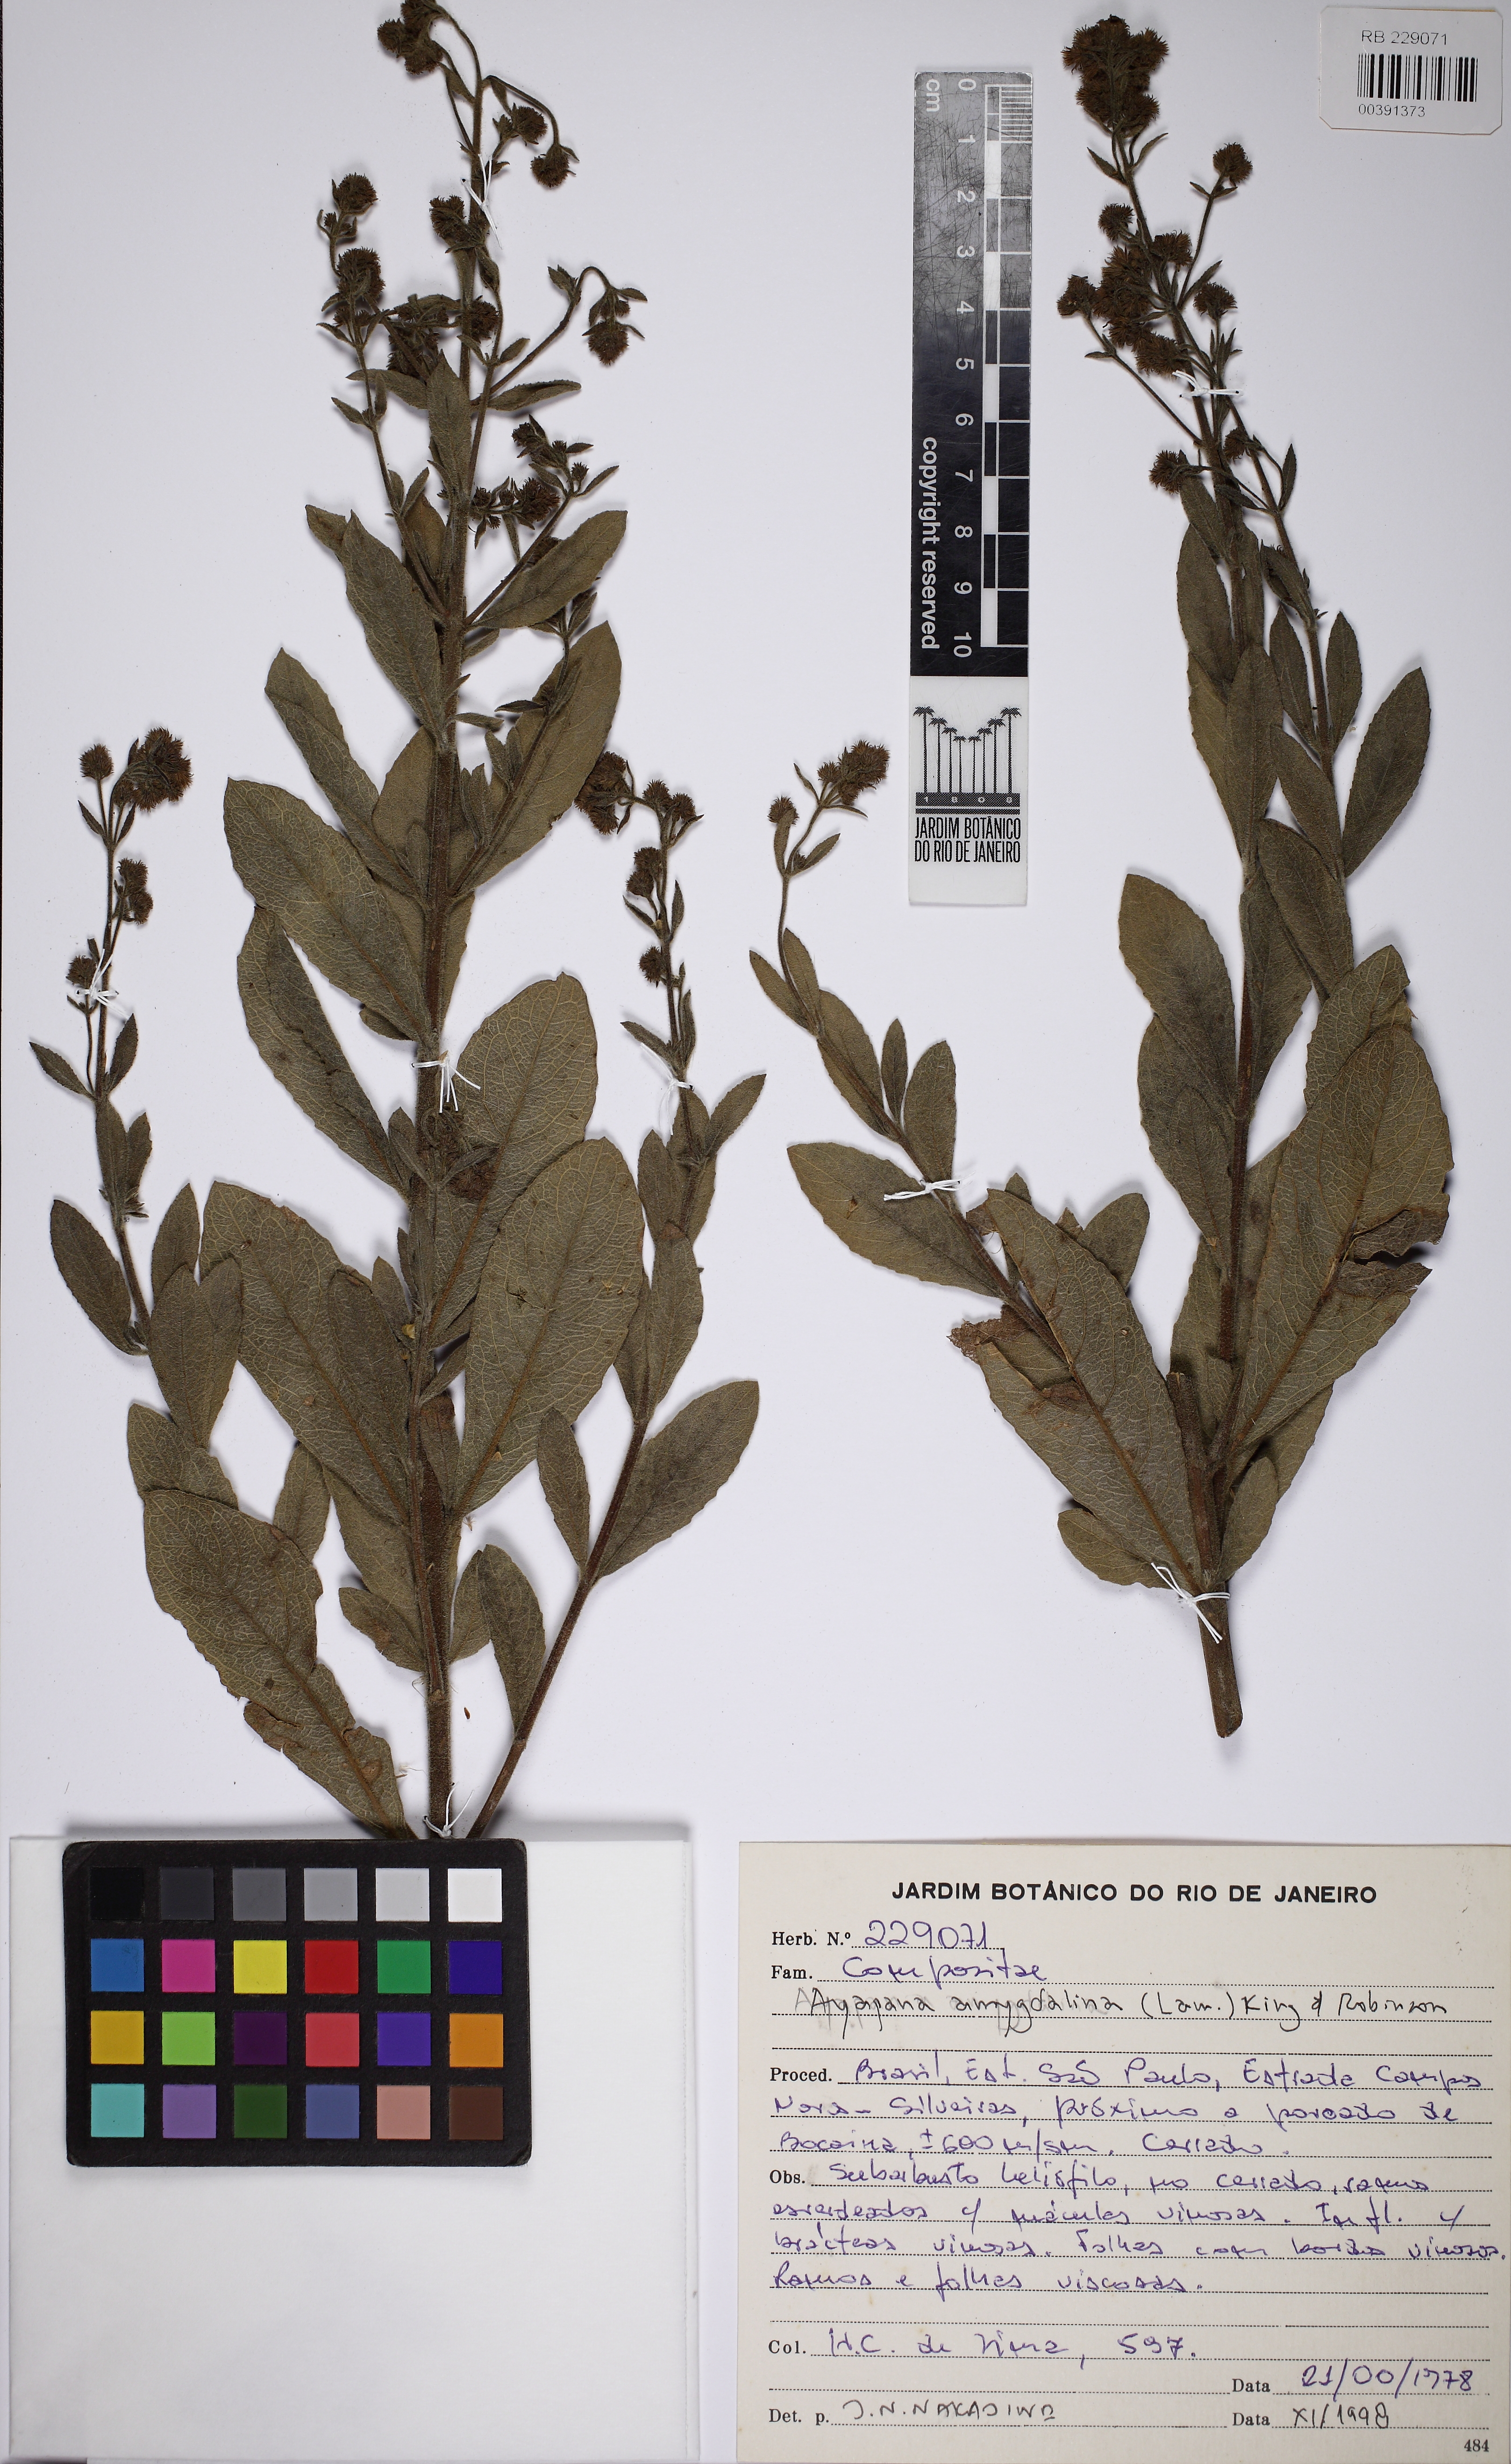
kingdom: Plantae
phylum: Tracheophyta
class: Magnoliopsida
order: Asterales
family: Asteraceae
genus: Ayapana
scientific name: Ayapana amygdalina
